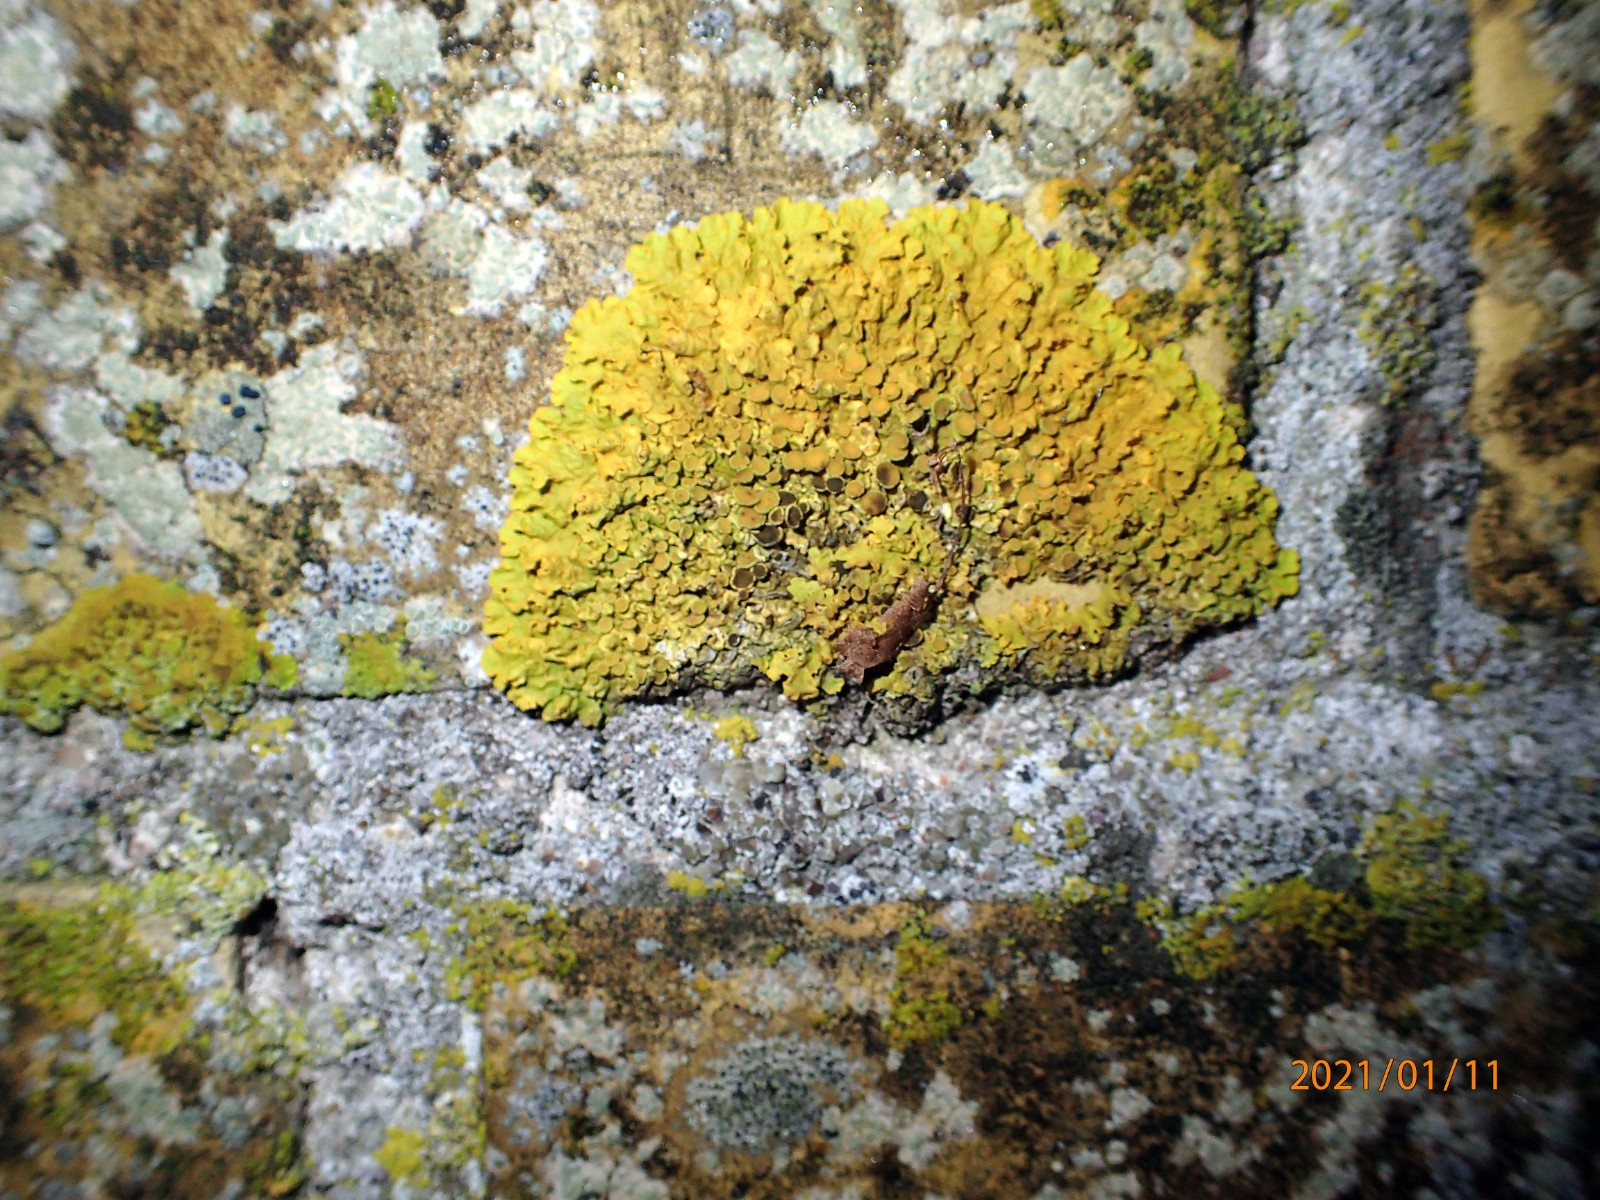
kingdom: Fungi
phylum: Ascomycota
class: Lecanoromycetes
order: Teloschistales
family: Teloschistaceae
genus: Xanthoria
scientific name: Xanthoria parietina
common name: almindelig væggelav
